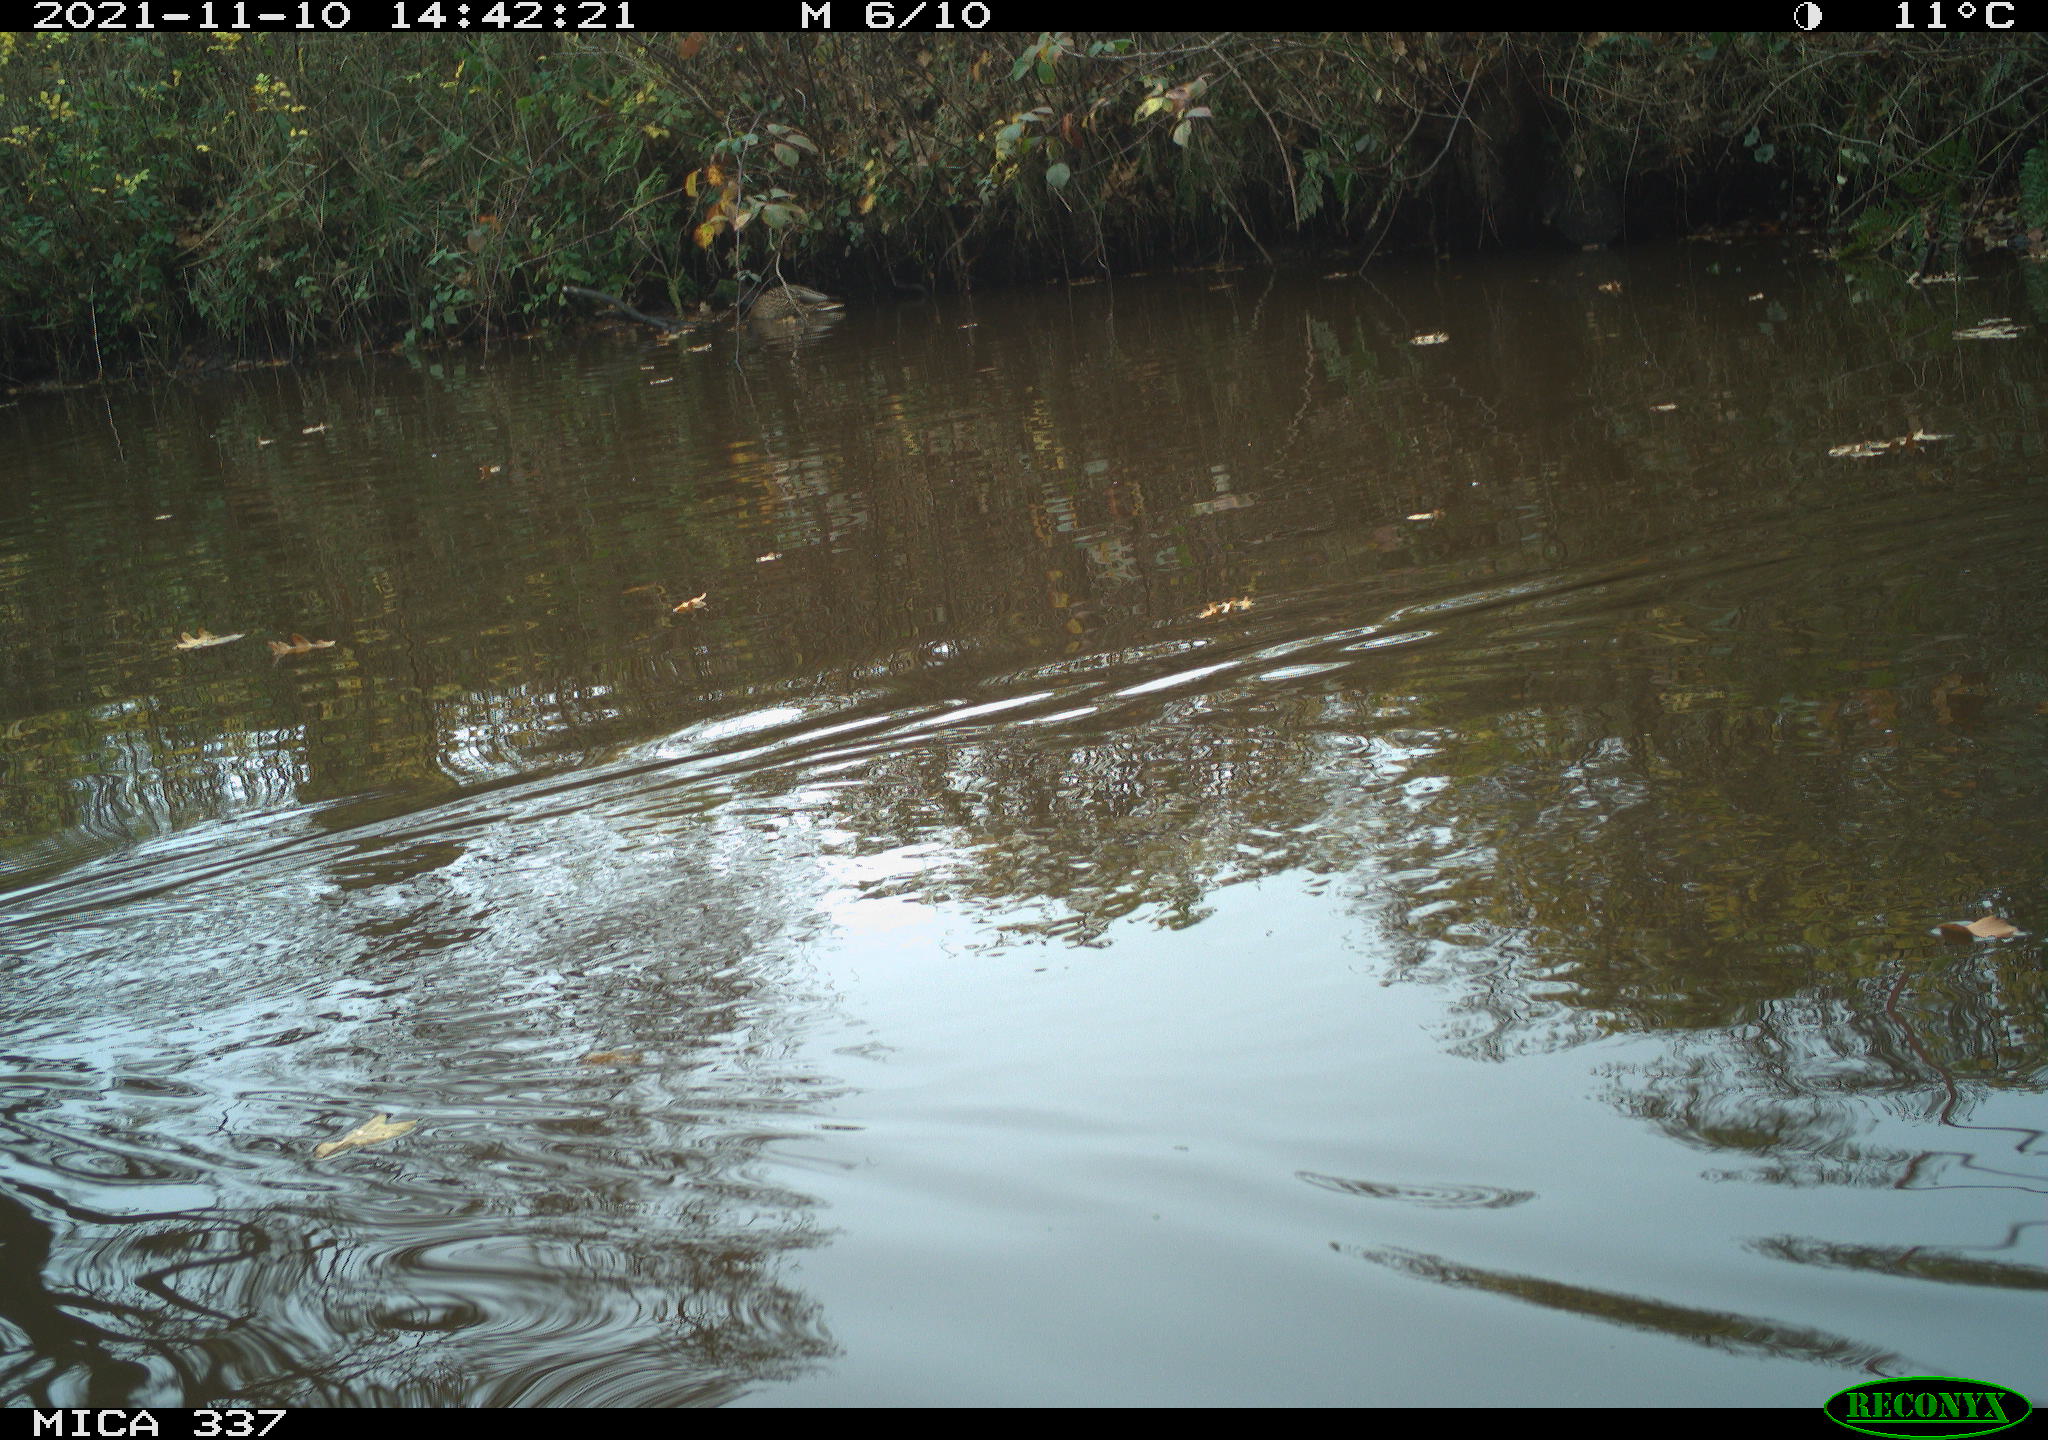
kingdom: Animalia
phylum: Chordata
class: Aves
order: Anseriformes
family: Anatidae
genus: Anas
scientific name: Anas platyrhynchos
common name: Mallard
